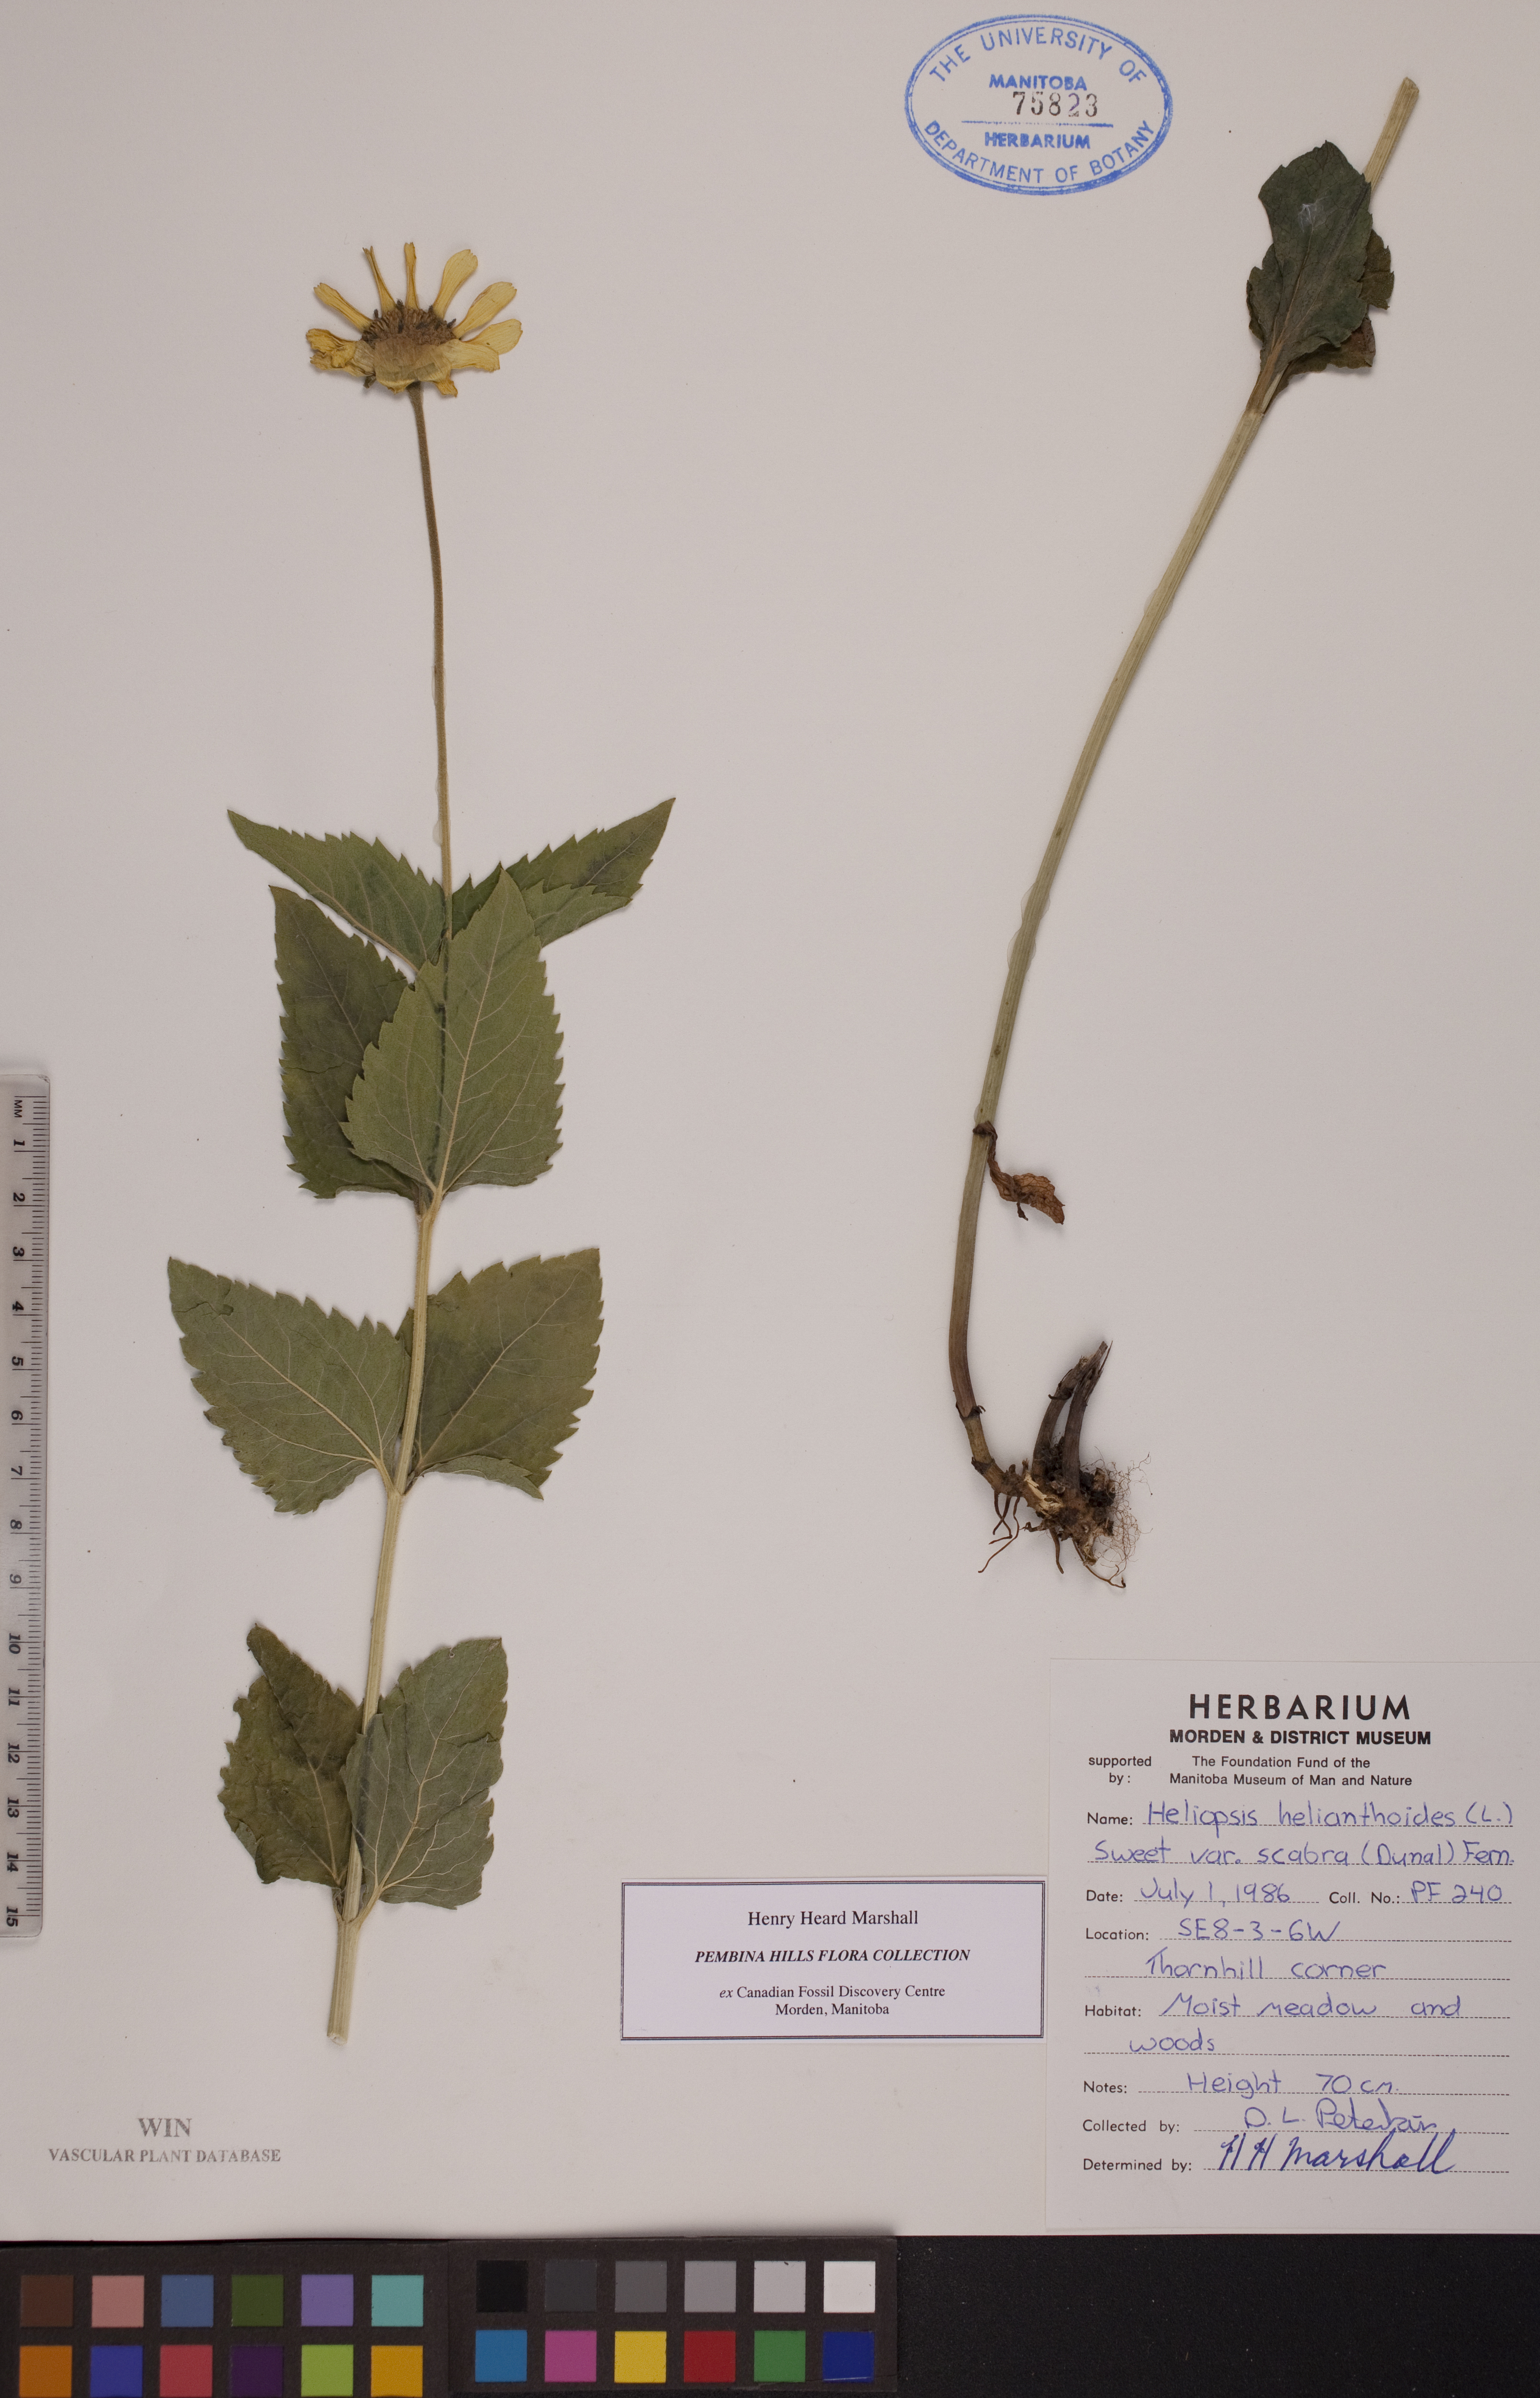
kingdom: Plantae
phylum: Tracheophyta
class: Magnoliopsida
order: Asterales
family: Asteraceae
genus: Heliopsis
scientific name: Heliopsis helianthoides
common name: False sunflower
